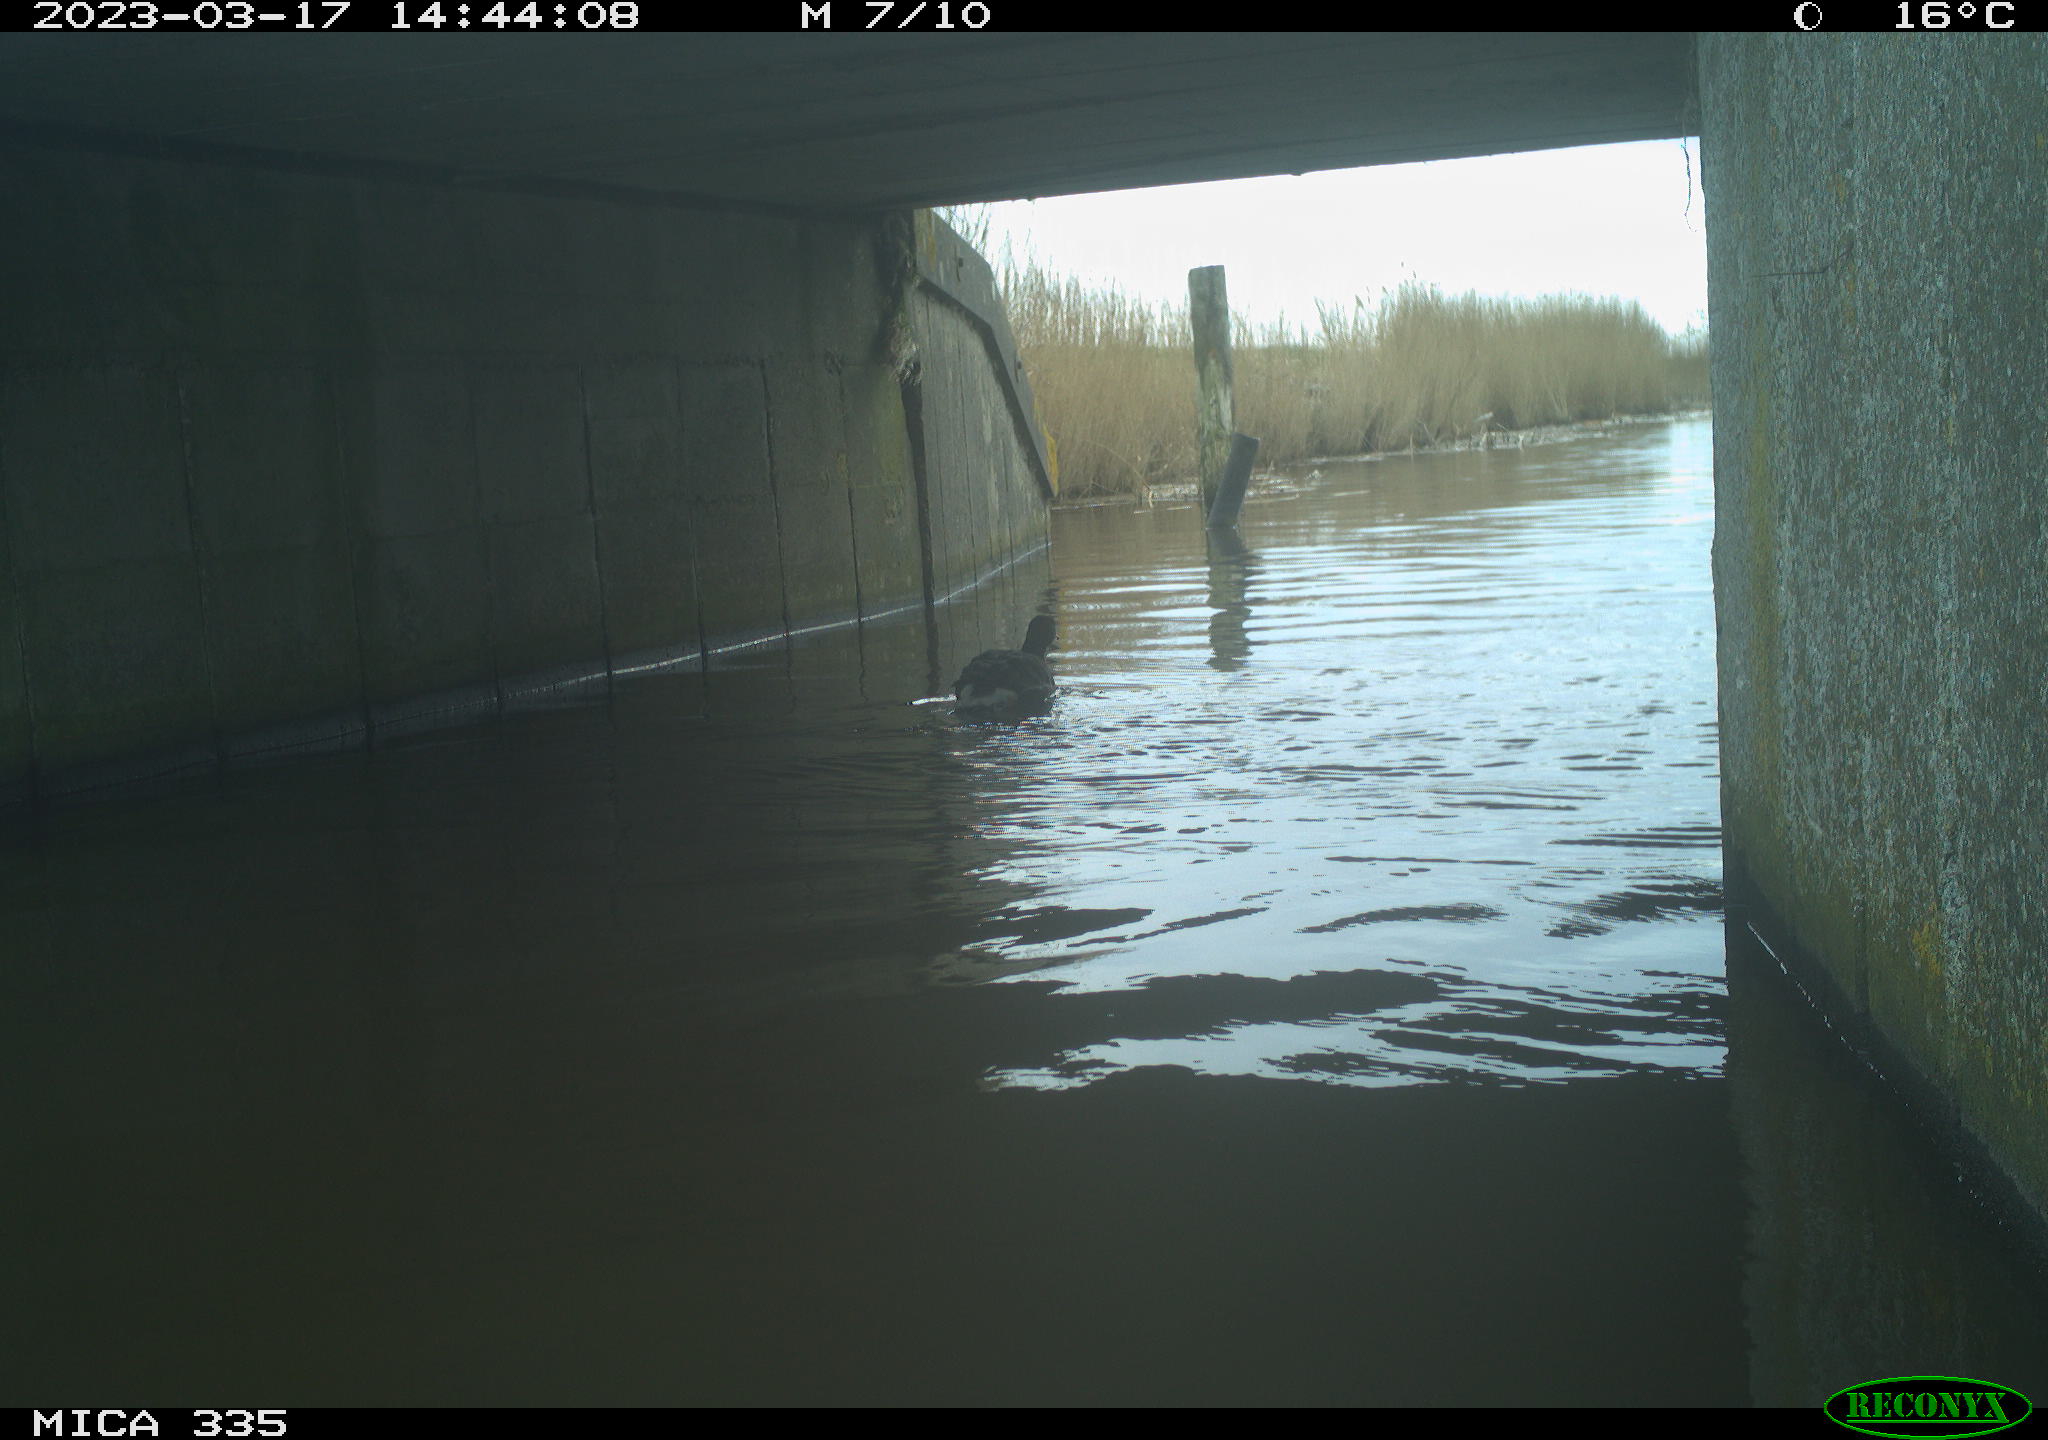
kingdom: Animalia
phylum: Chordata
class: Aves
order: Gruiformes
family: Rallidae
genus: Gallinula
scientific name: Gallinula chloropus
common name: Common moorhen
